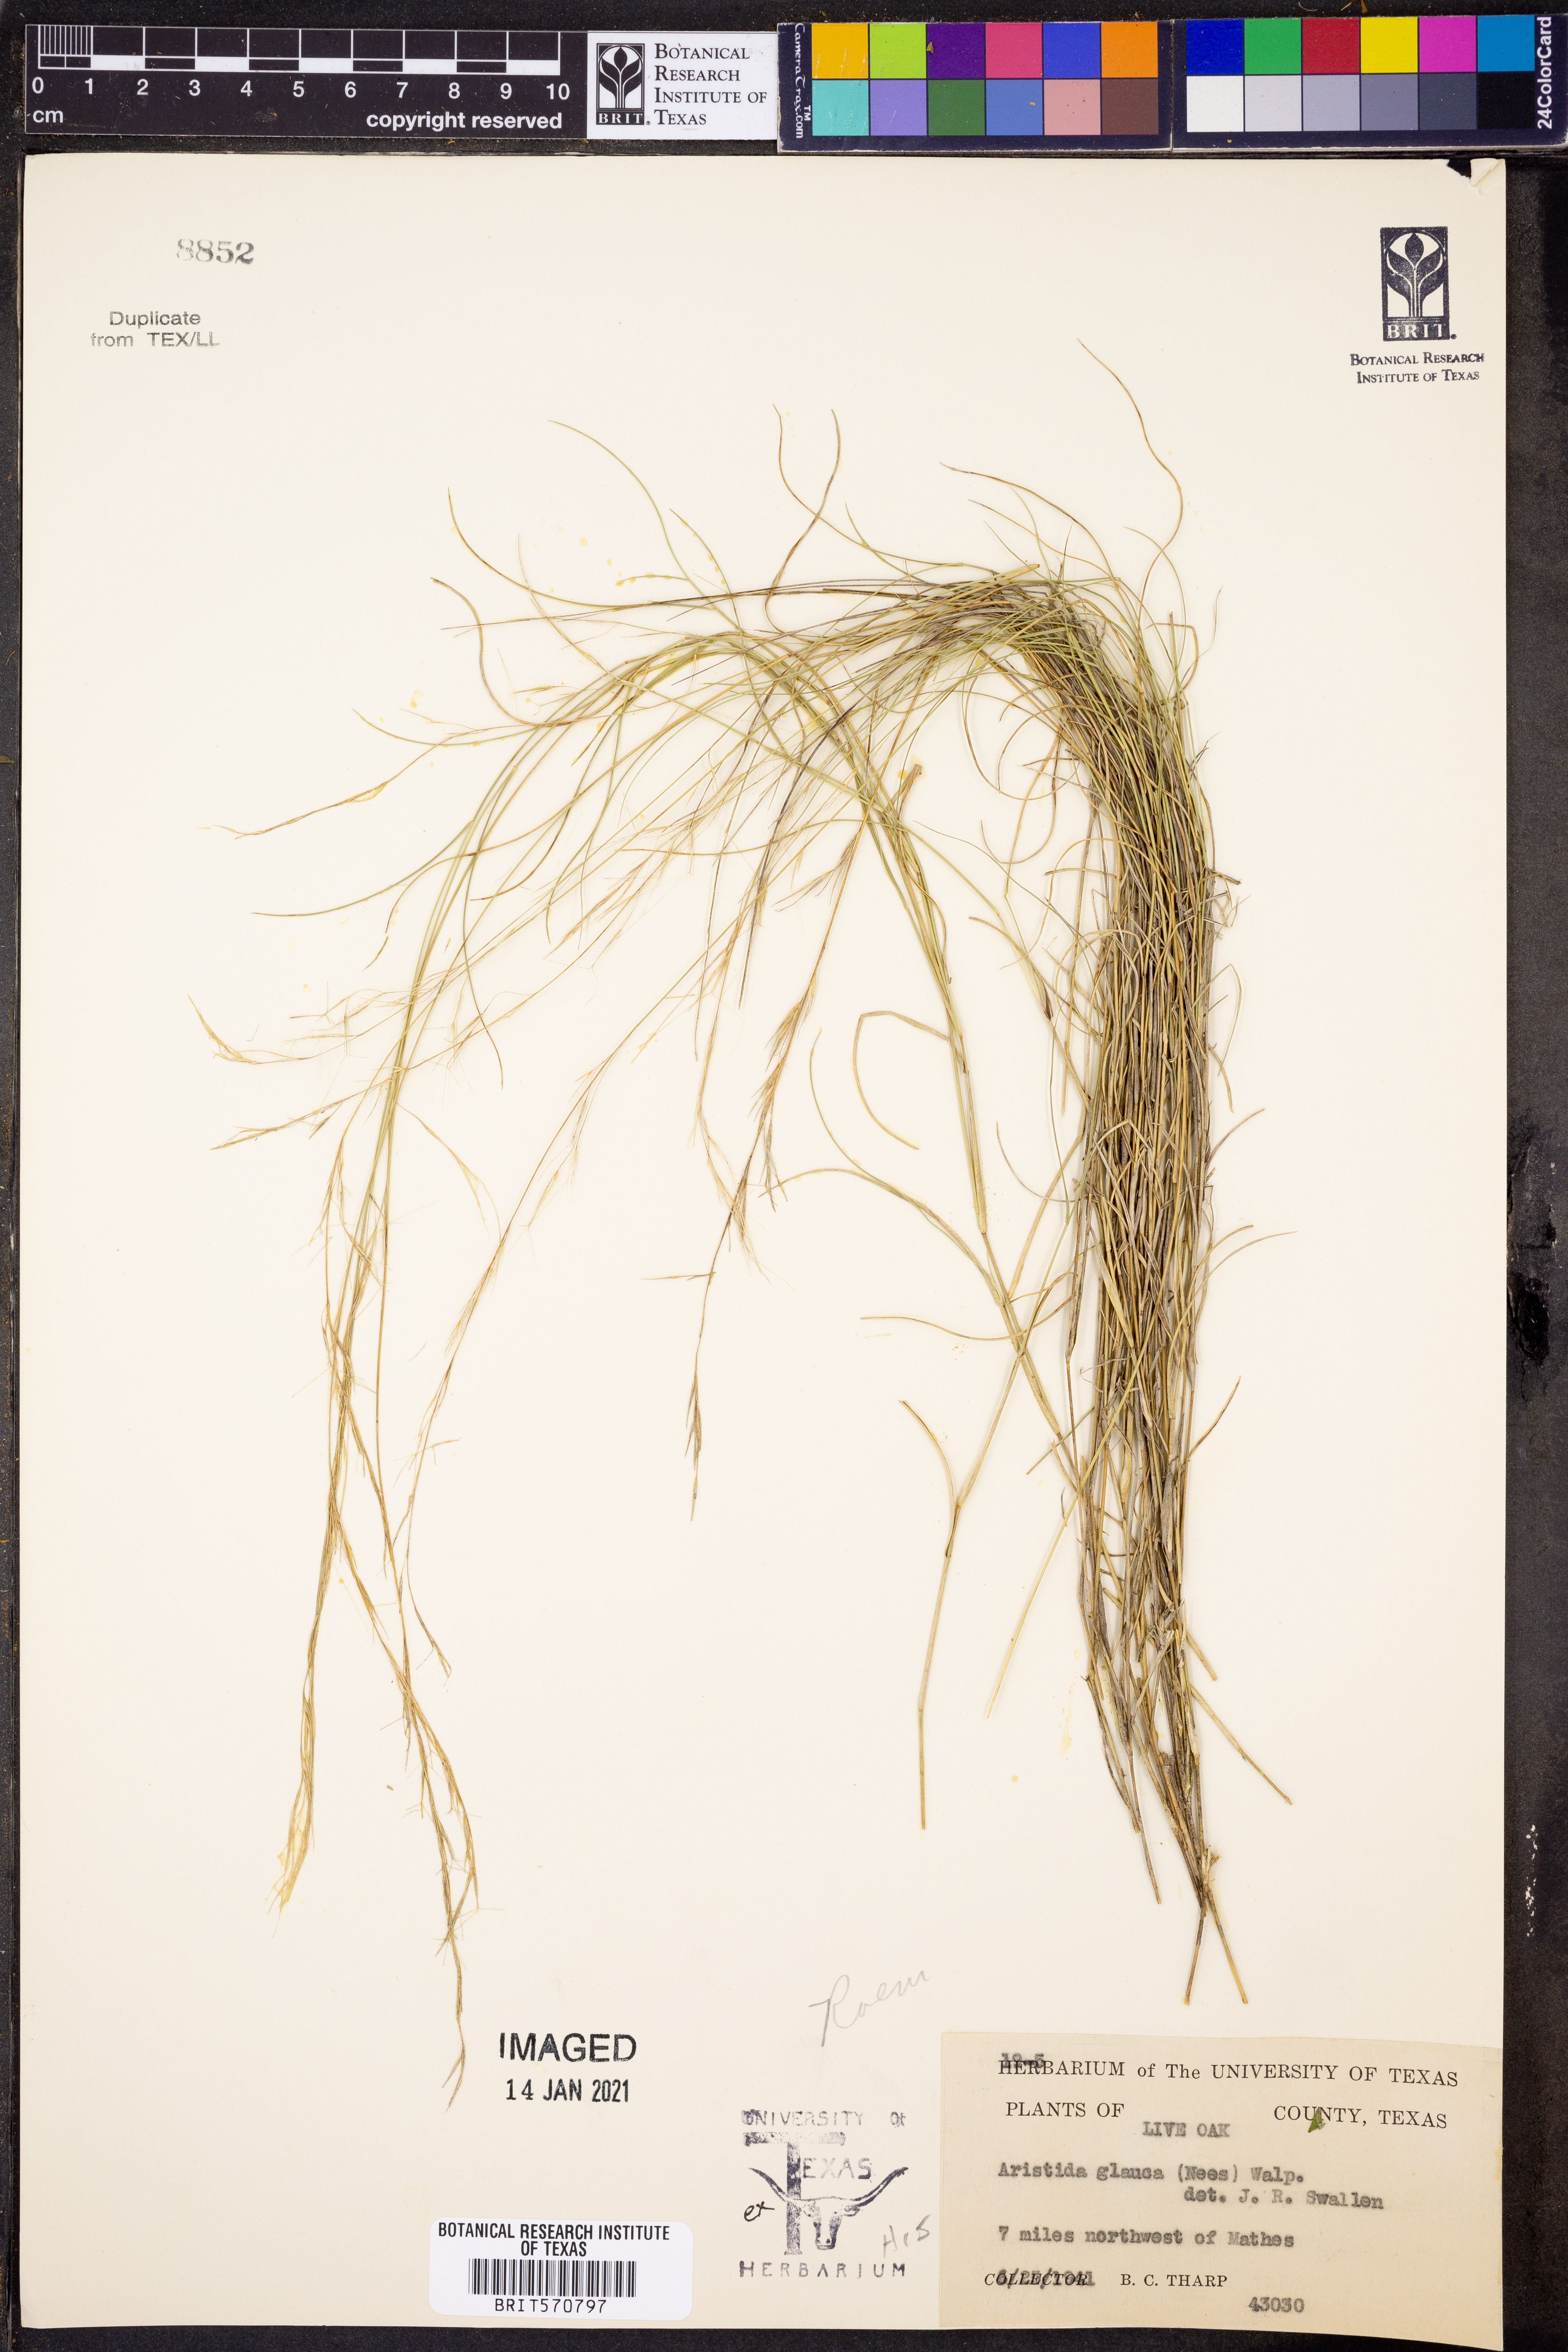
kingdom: Plantae
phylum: Tracheophyta
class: Liliopsida
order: Poales
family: Poaceae
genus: Aristida
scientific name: Aristida glauca
